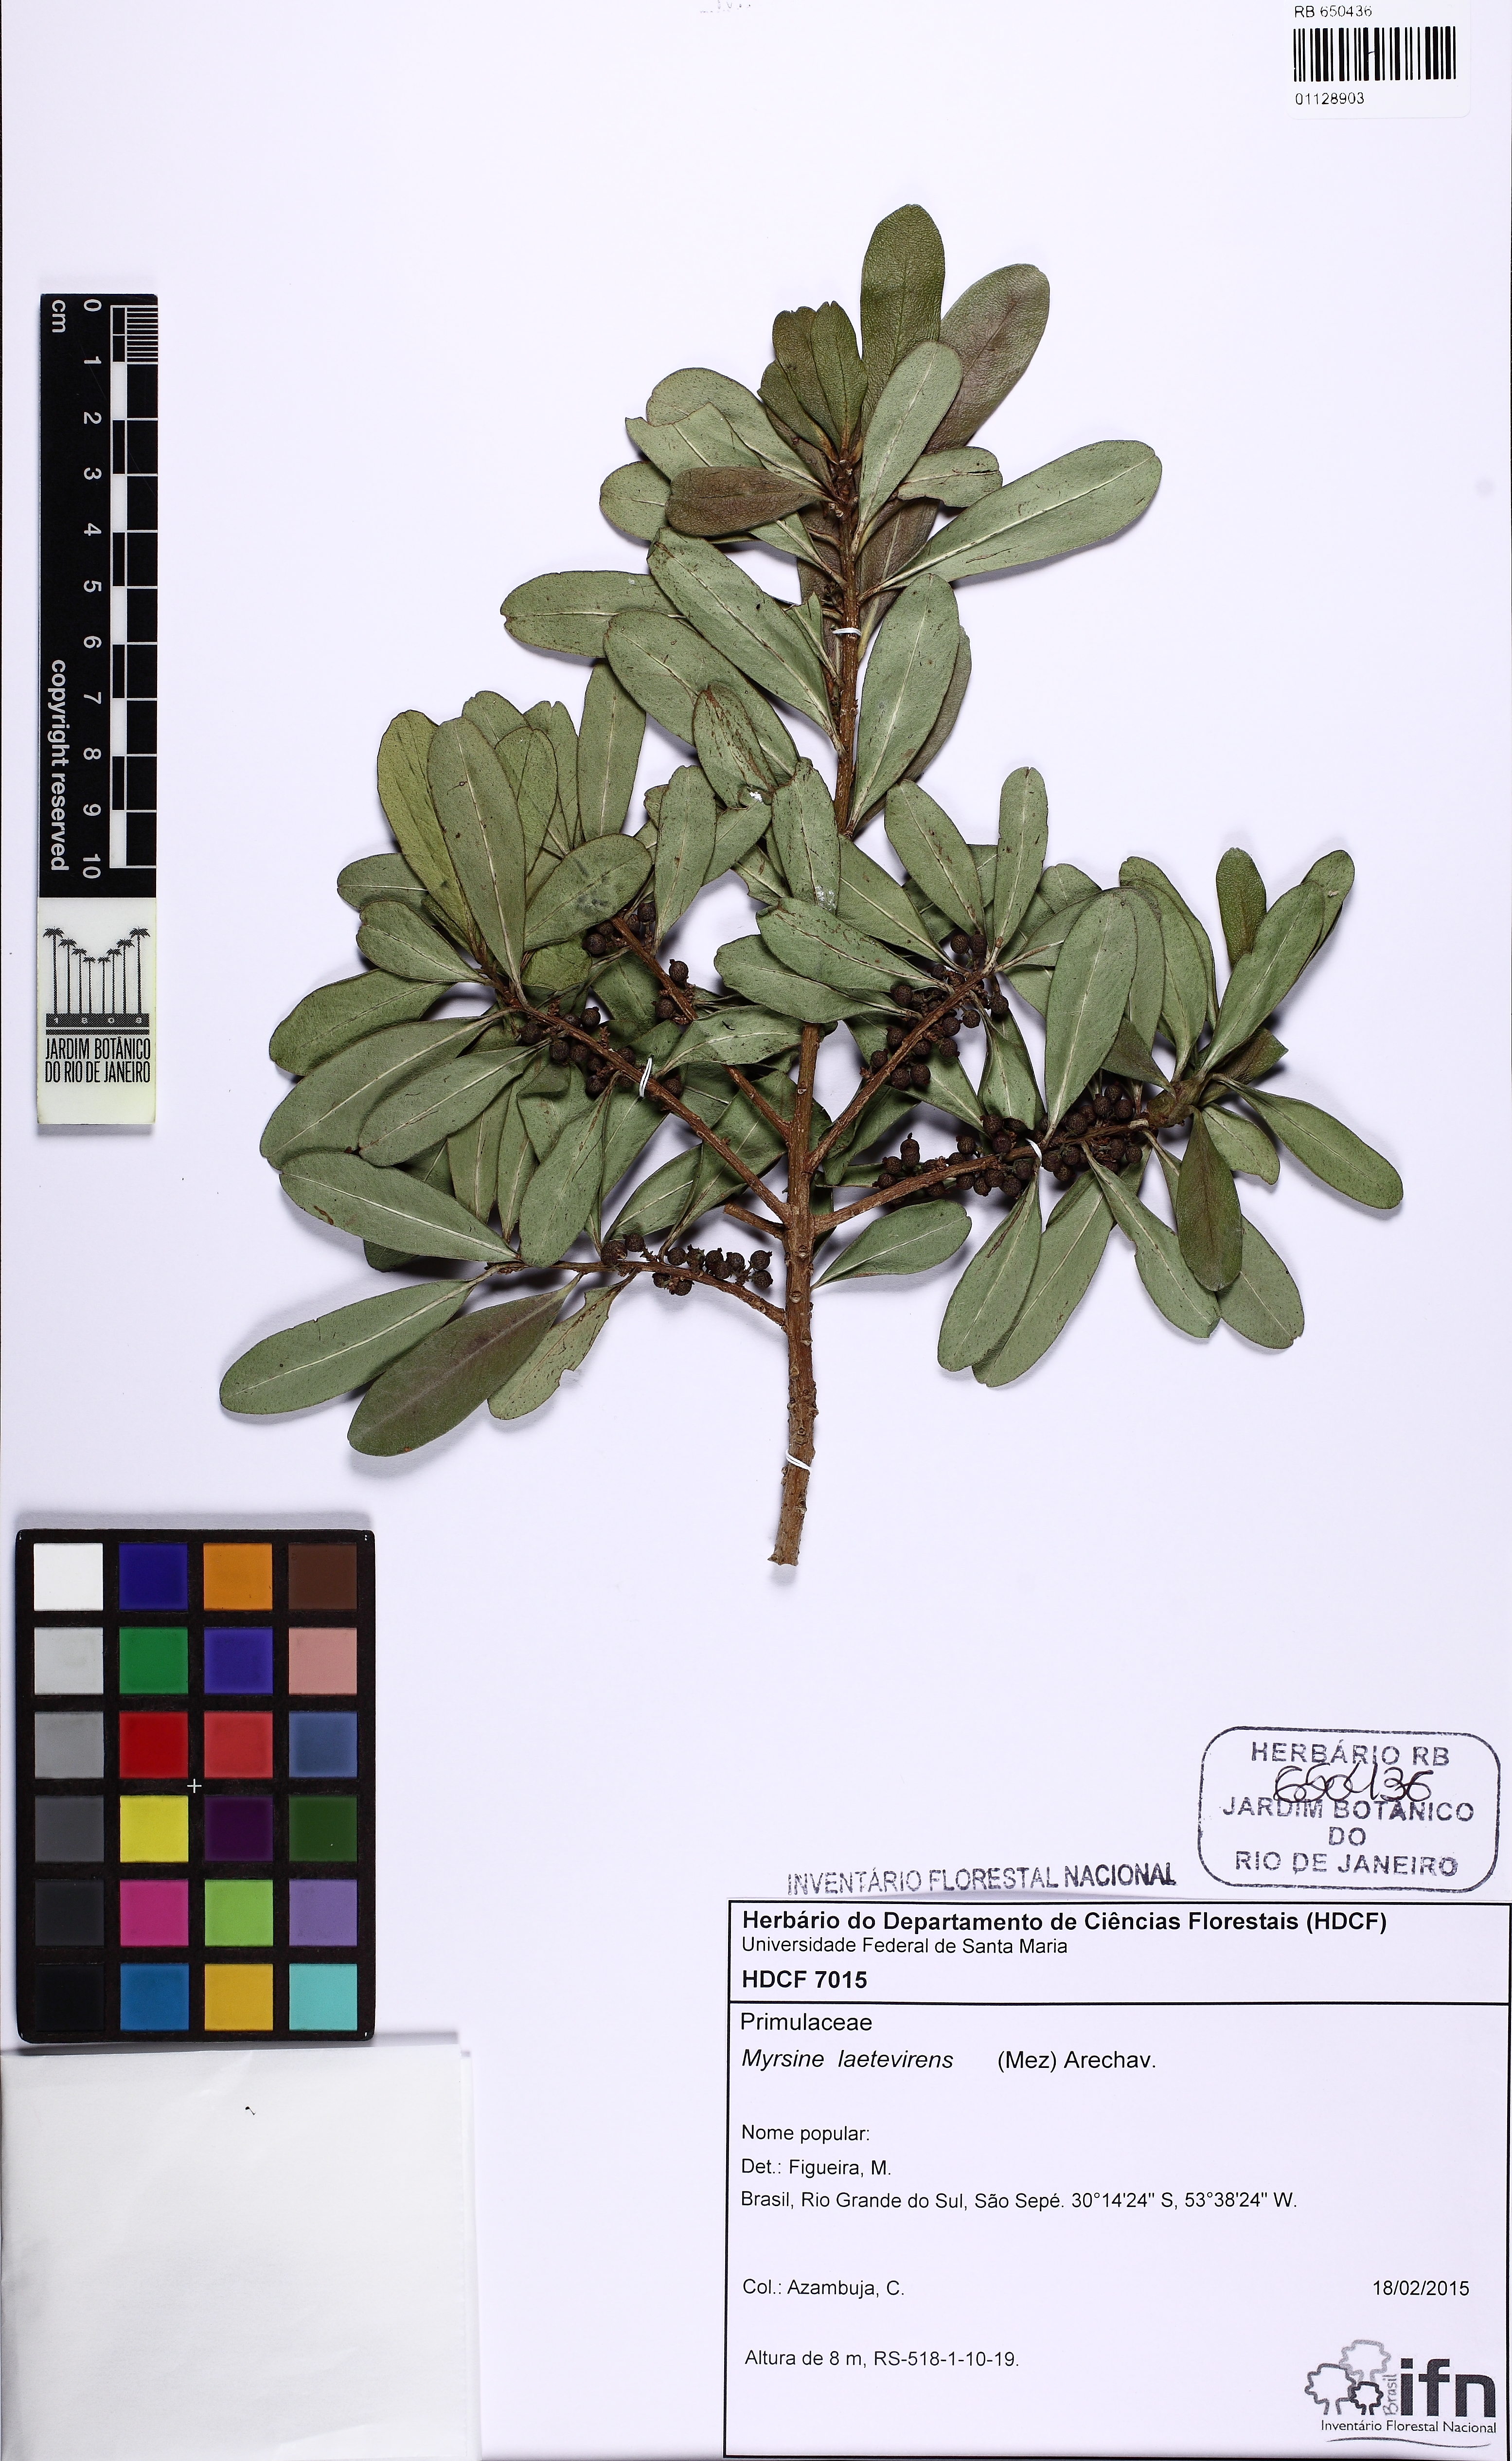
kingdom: Plantae
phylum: Tracheophyta
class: Magnoliopsida
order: Ericales
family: Primulaceae
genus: Myrsine
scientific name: Myrsine laetevirens
